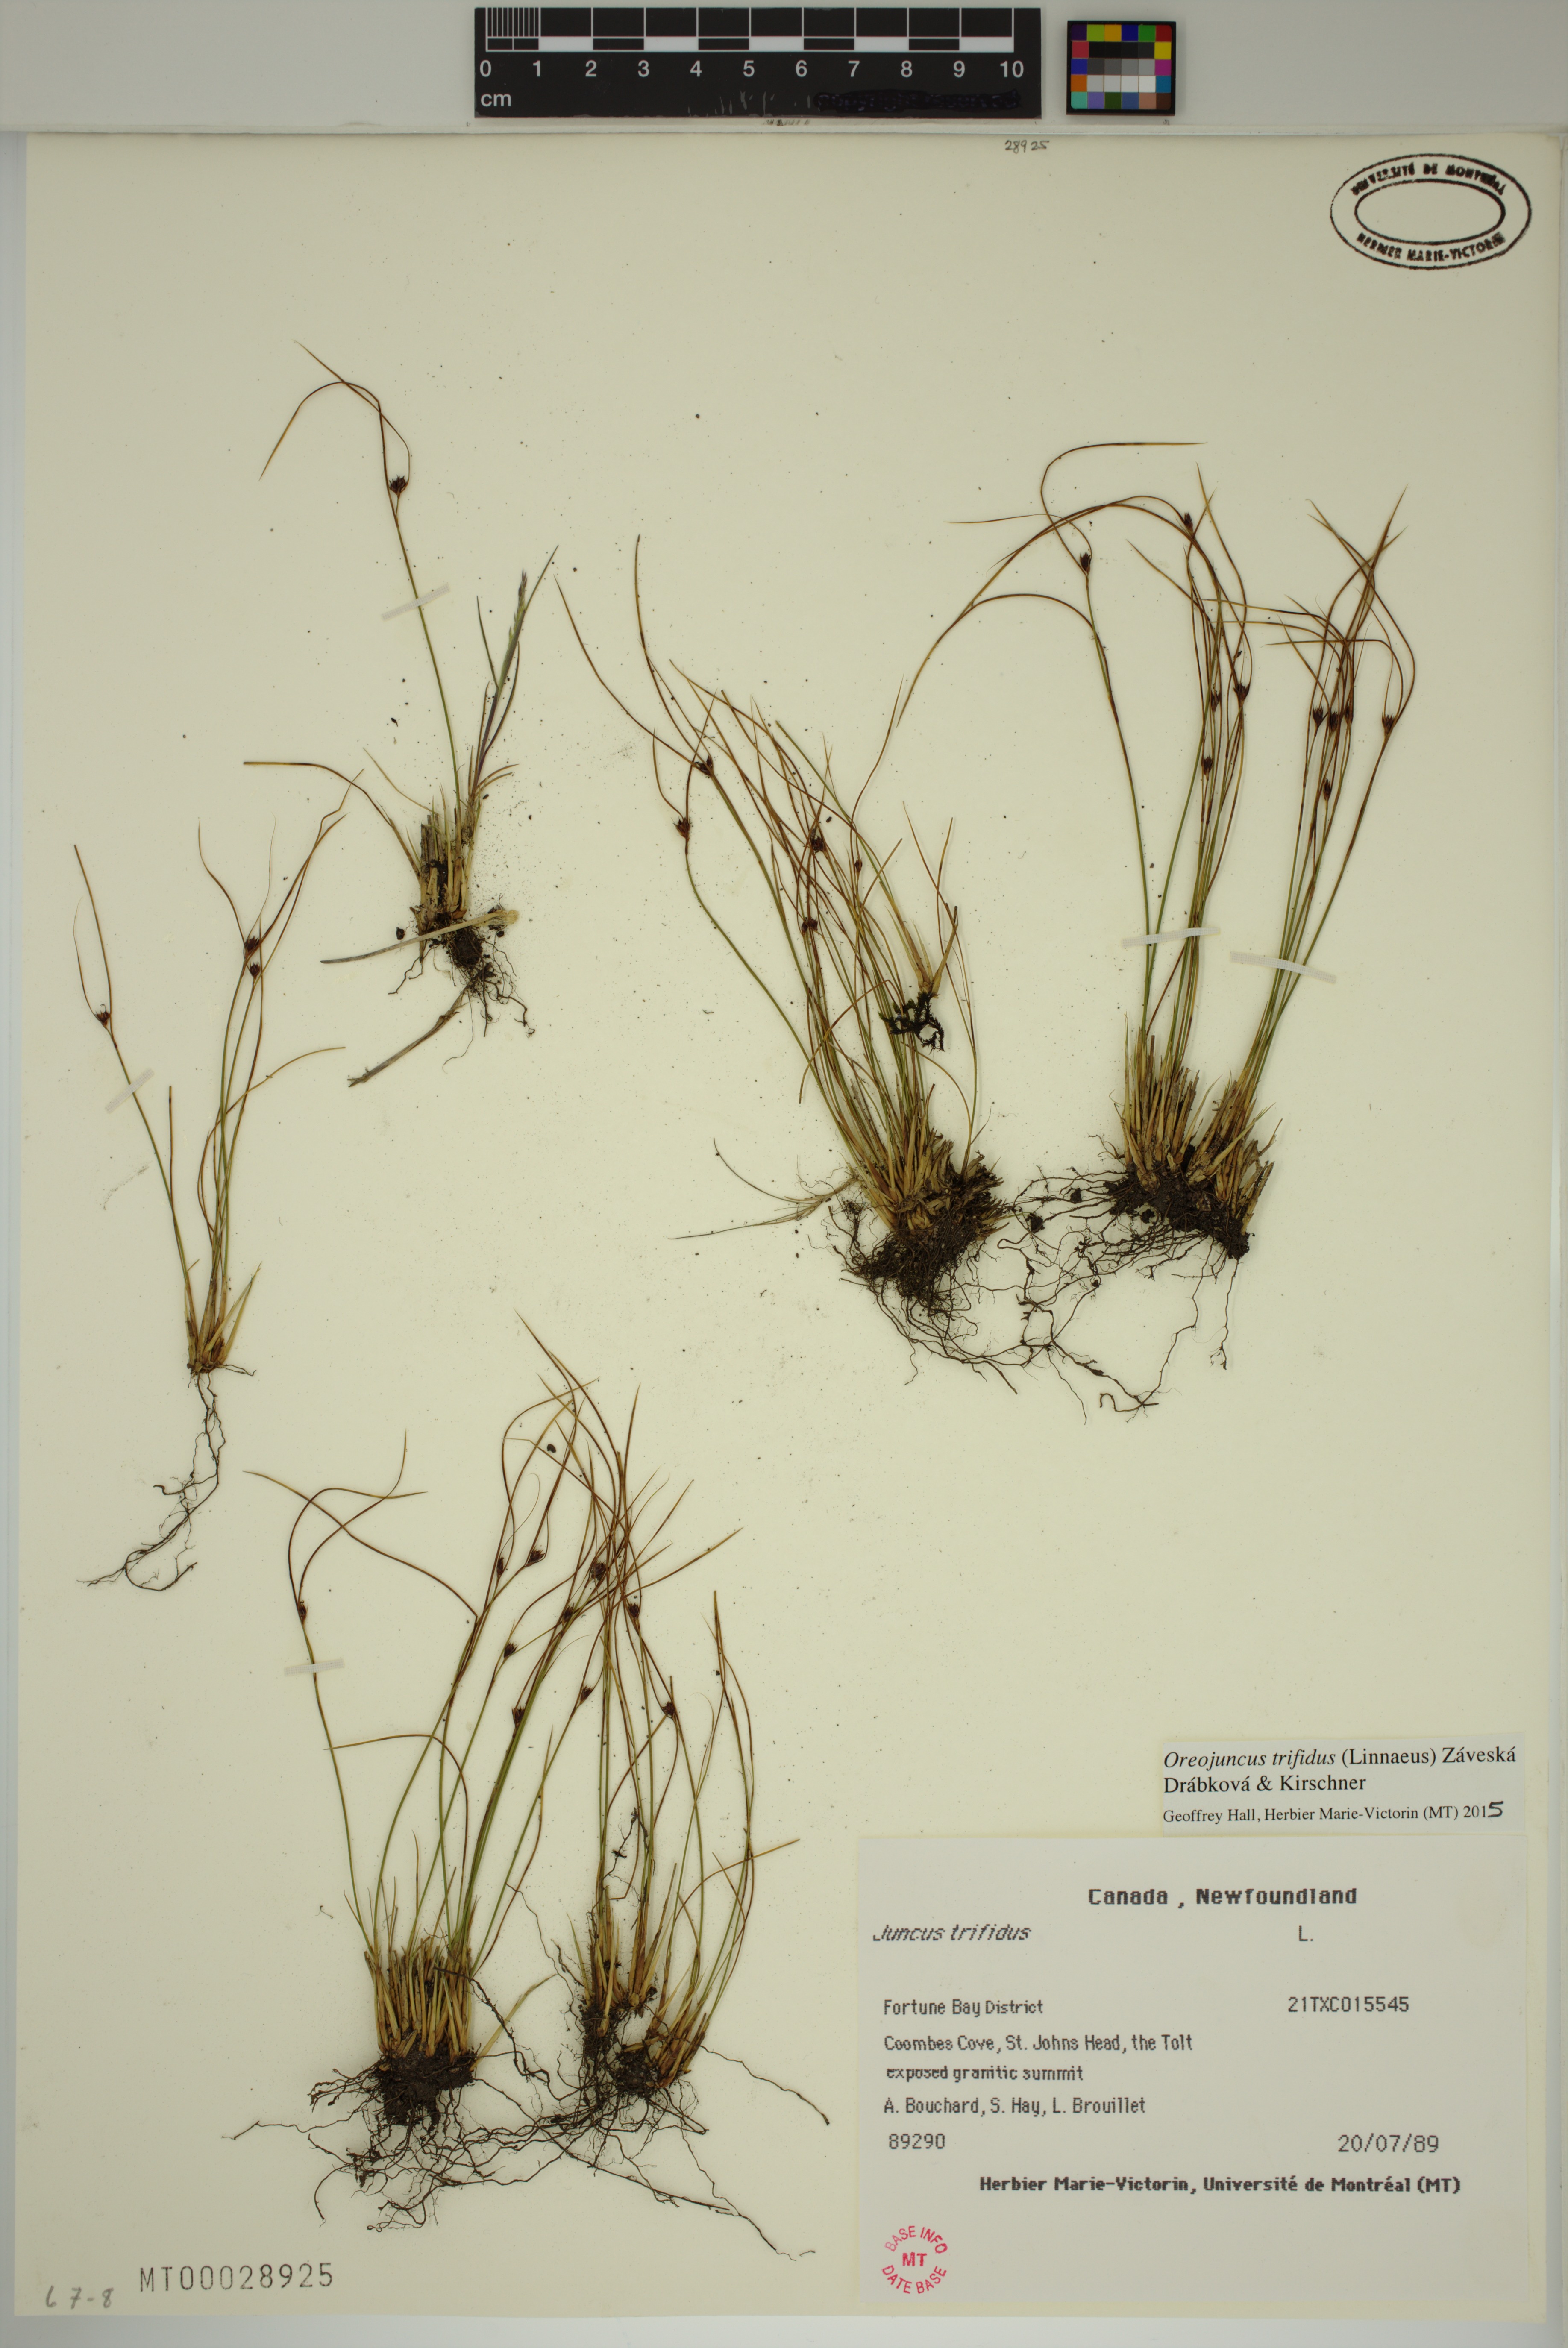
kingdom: Plantae
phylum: Tracheophyta
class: Liliopsida
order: Poales
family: Juncaceae
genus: Oreojuncus
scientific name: Oreojuncus trifidus
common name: Highland rush
